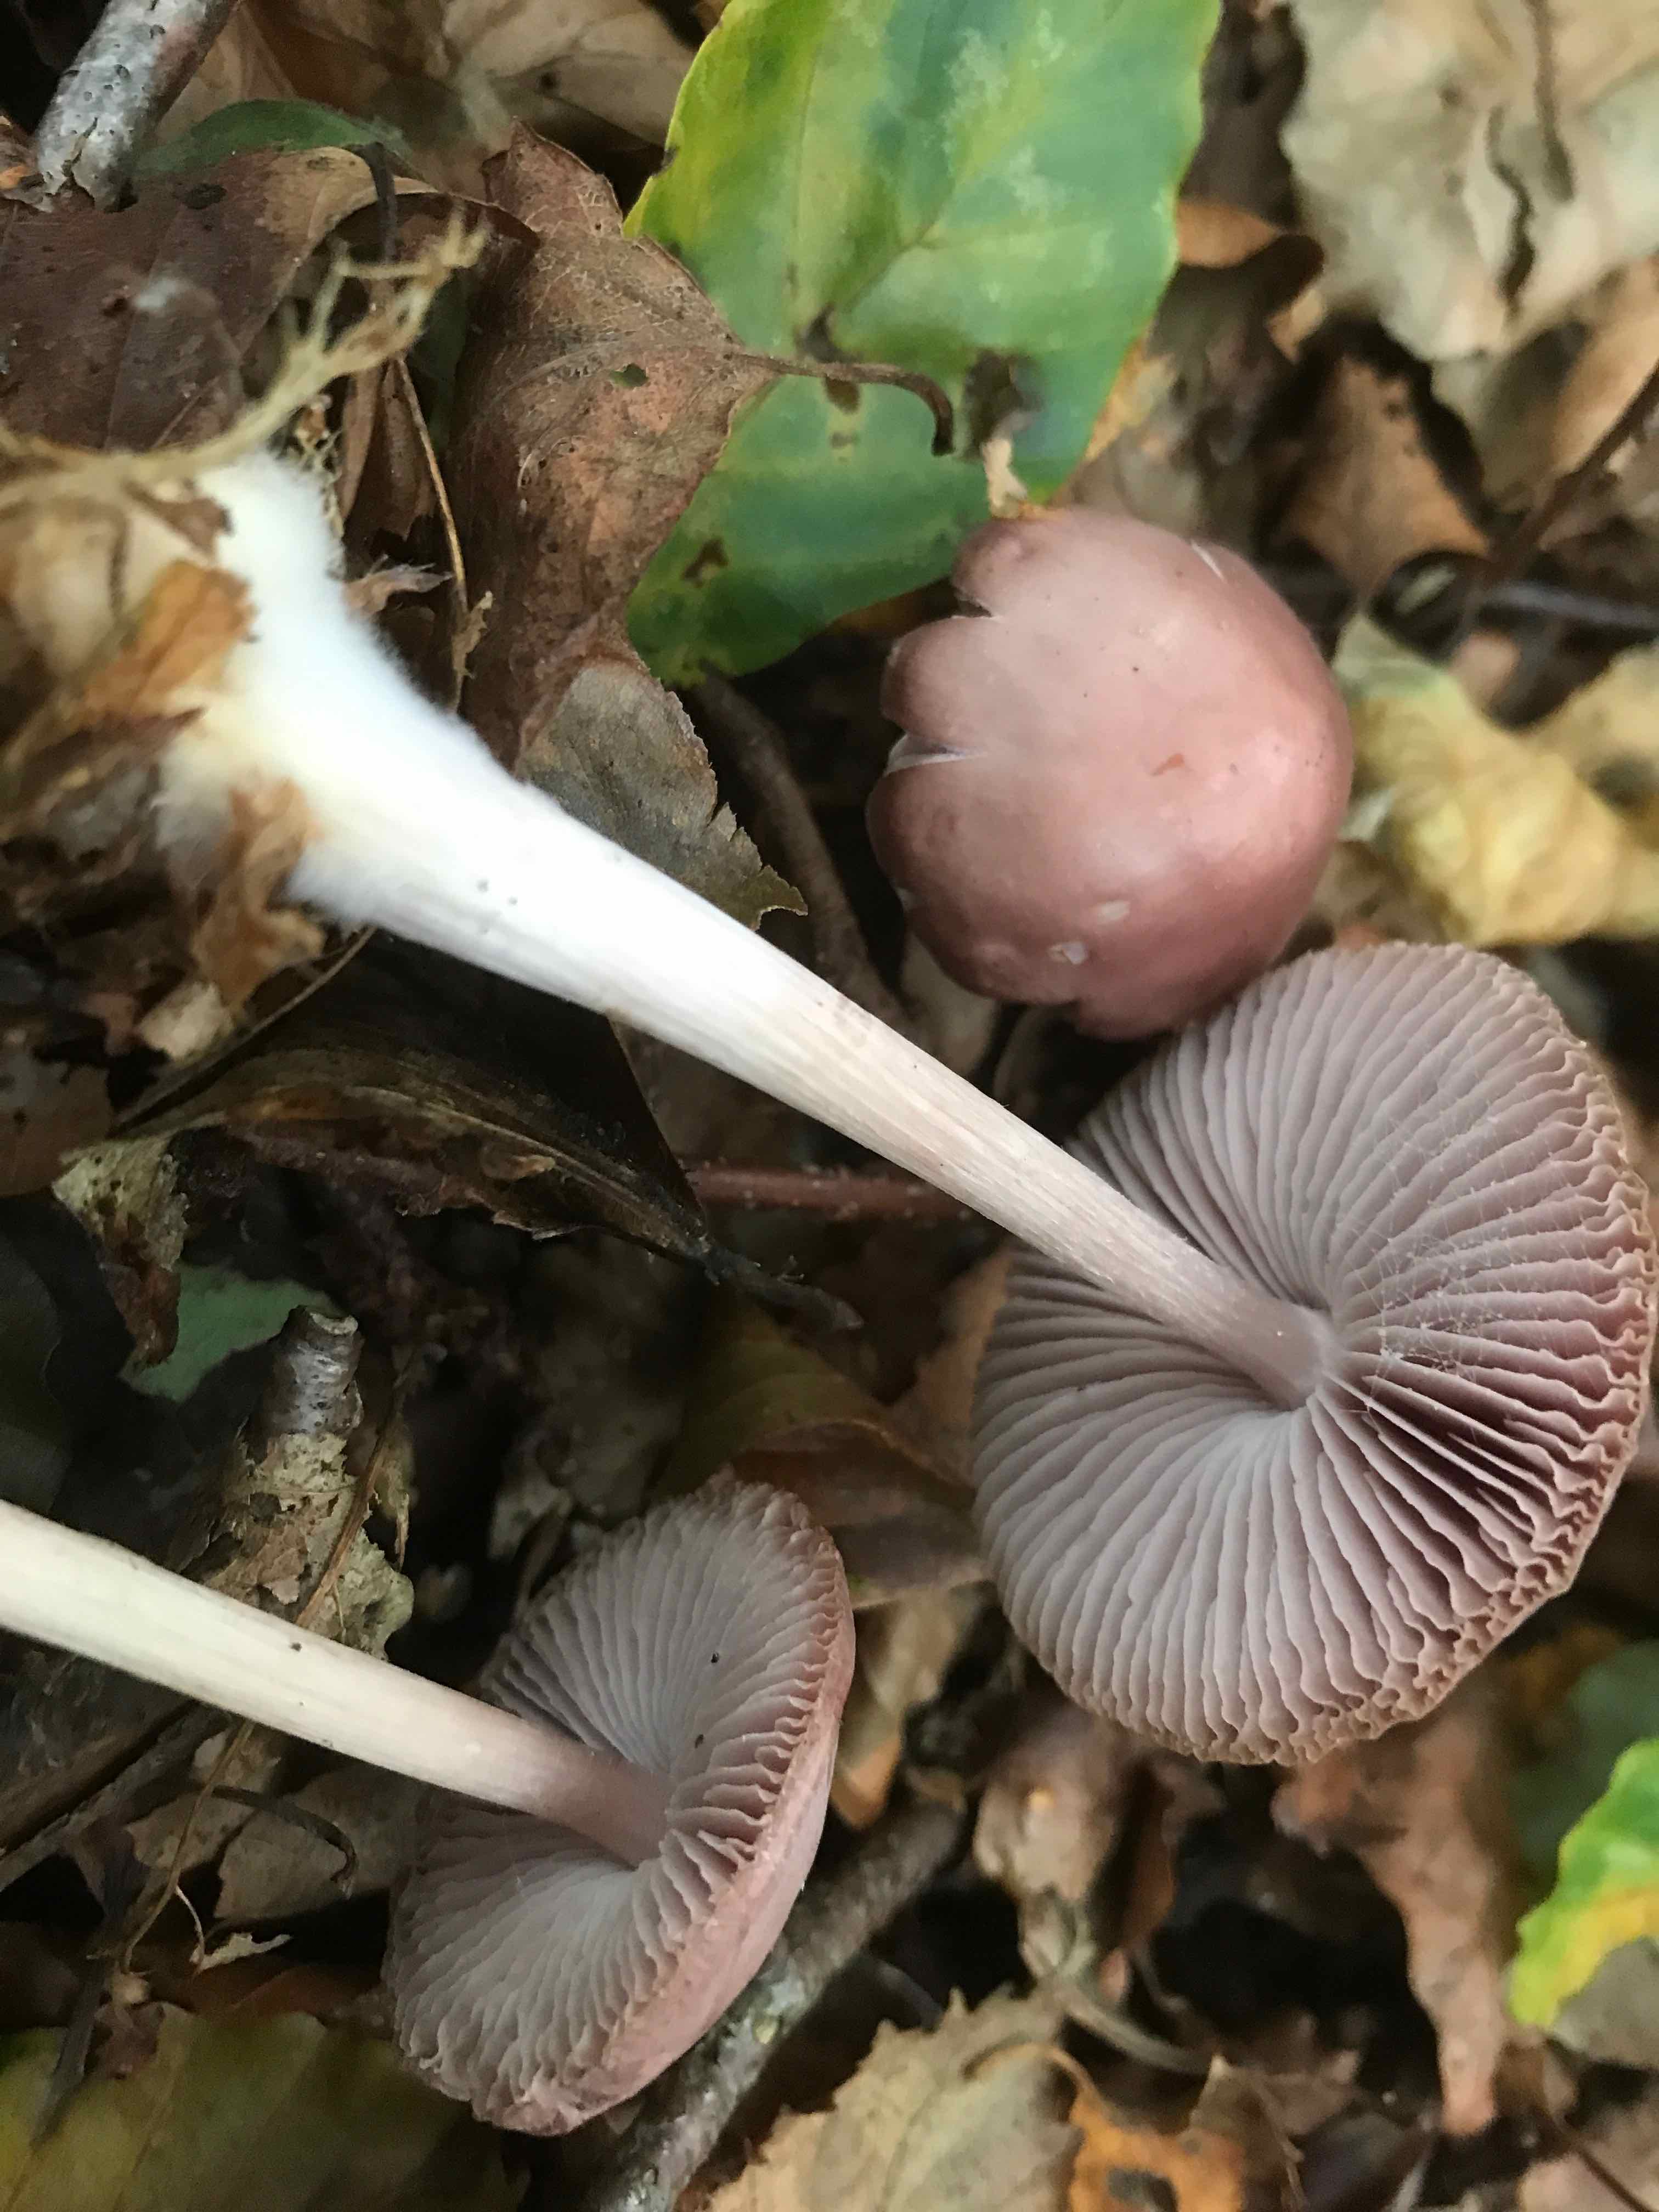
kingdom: Fungi
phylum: Basidiomycota
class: Agaricomycetes
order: Agaricales
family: Mycenaceae
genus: Mycena
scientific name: Mycena rosea
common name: rosa huesvamp
